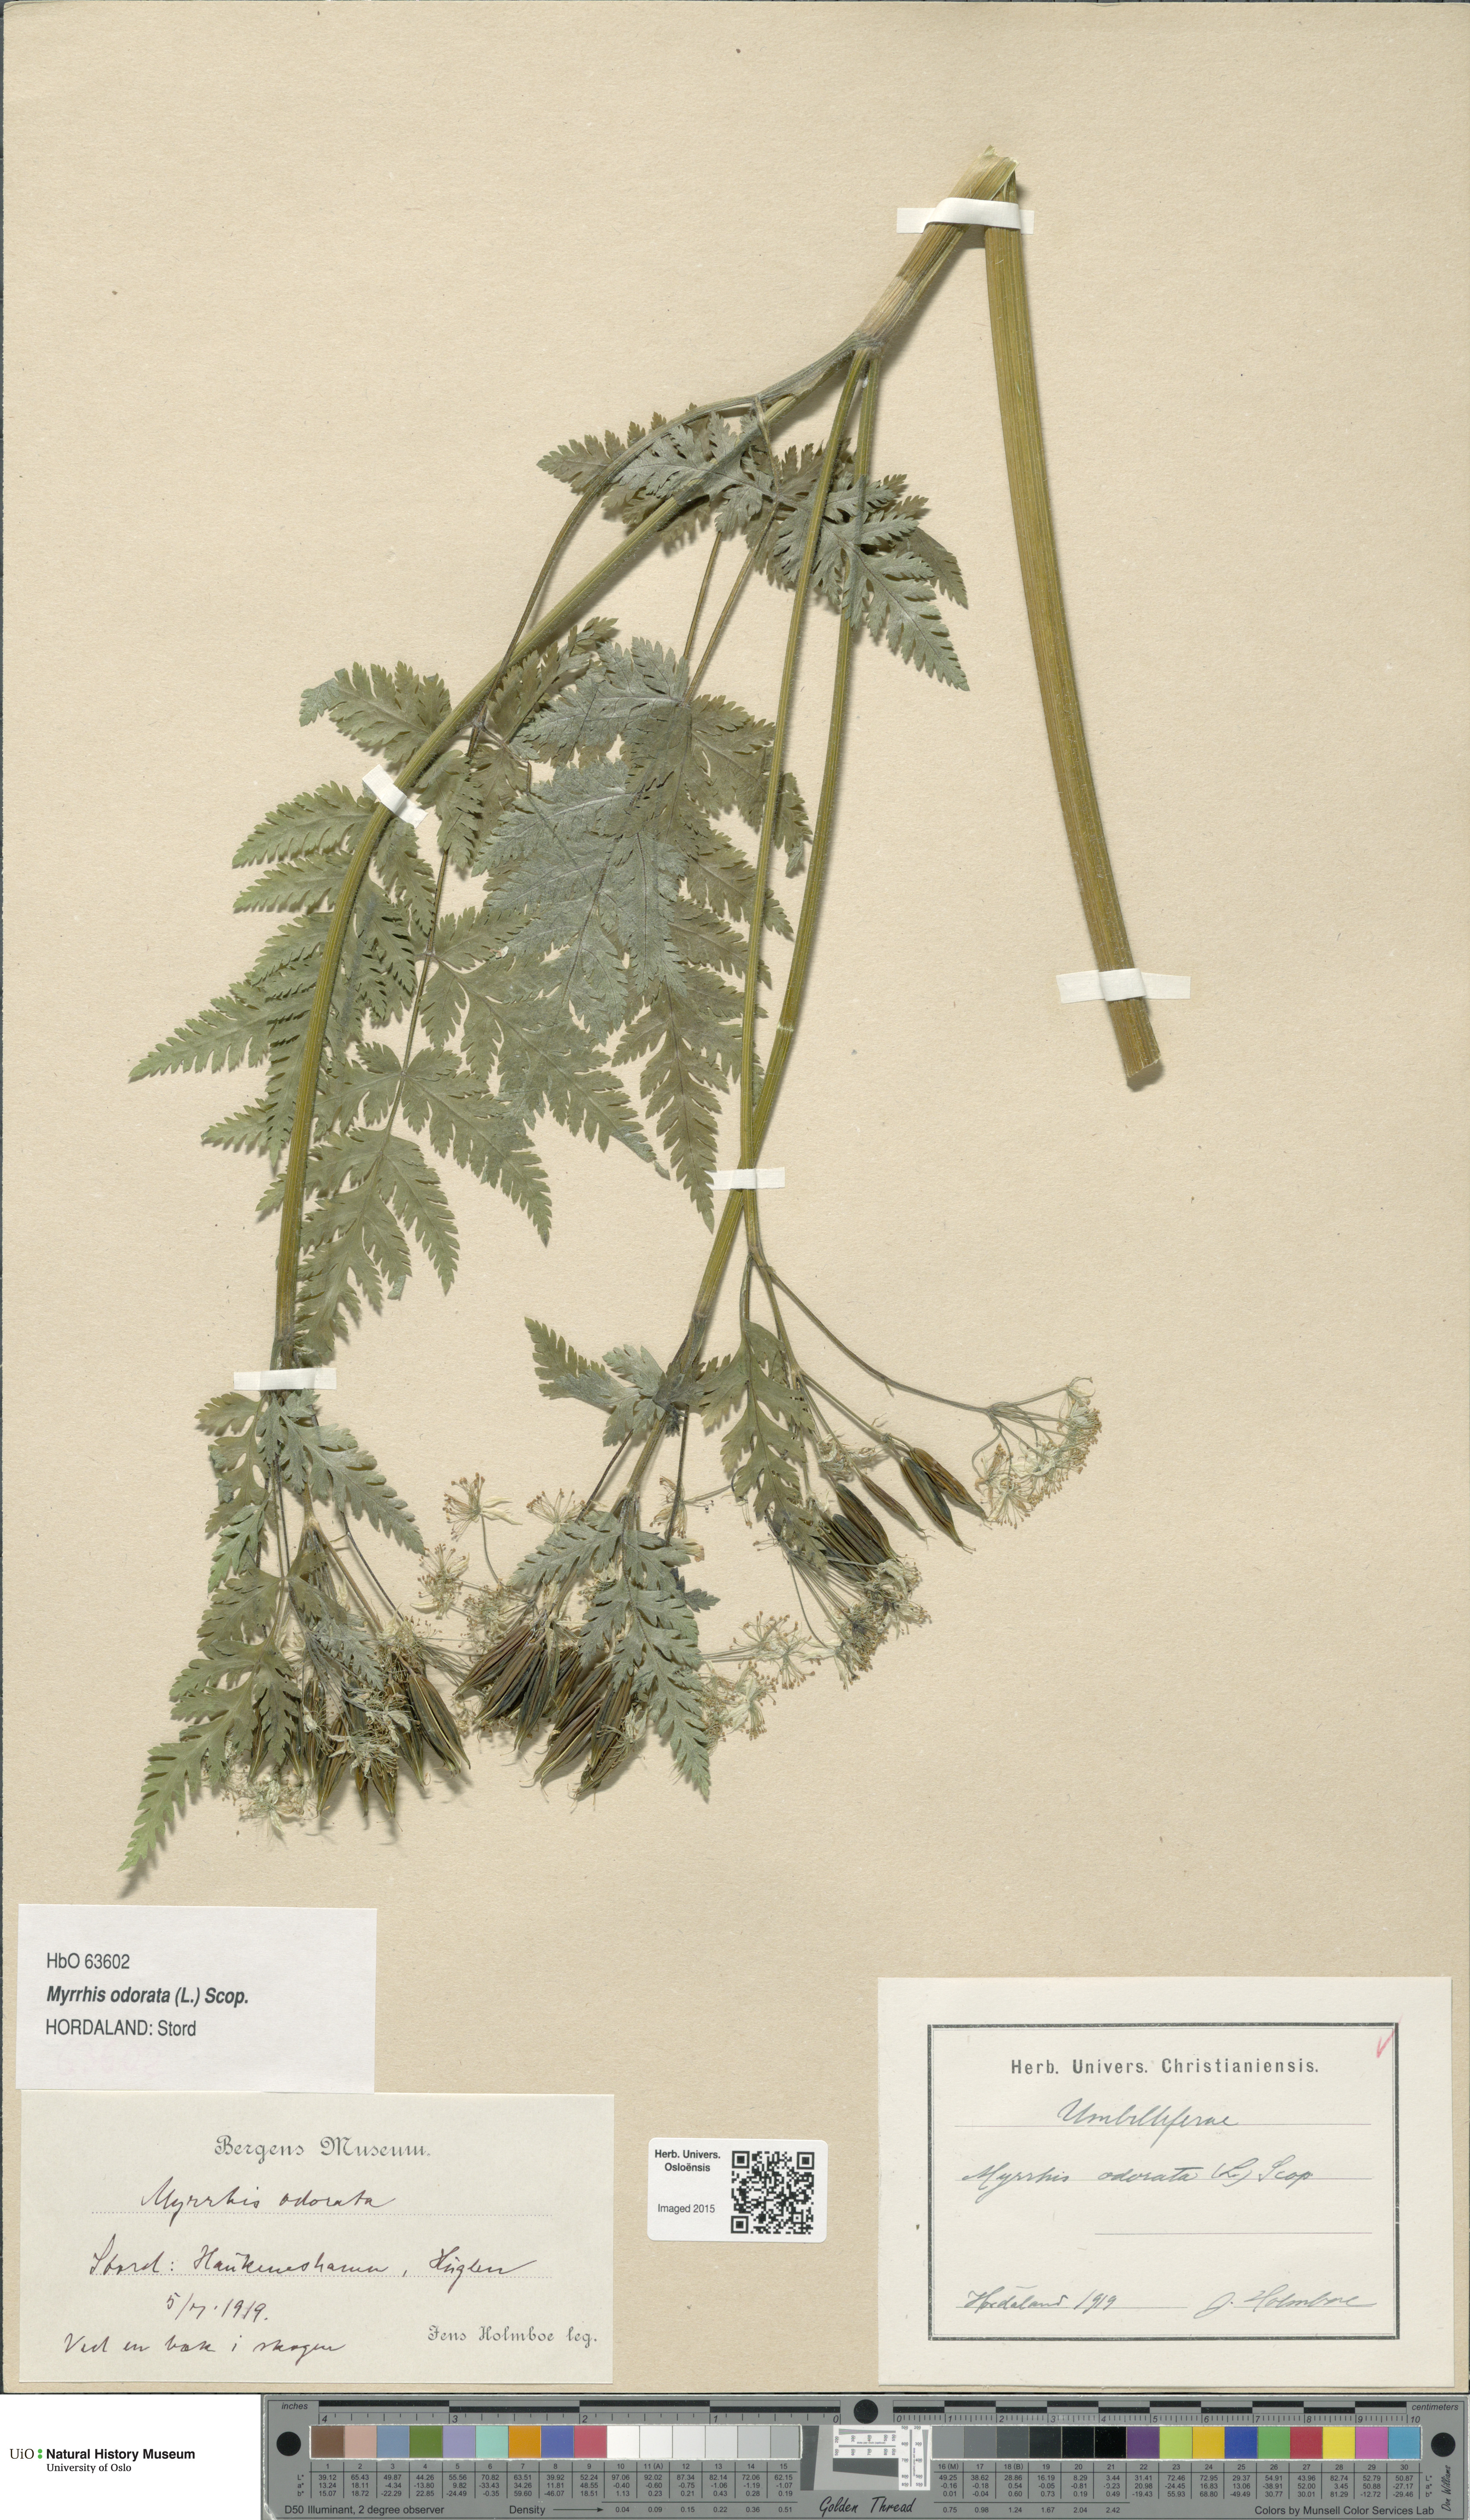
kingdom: Plantae
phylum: Tracheophyta
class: Magnoliopsida
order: Apiales
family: Apiaceae
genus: Myrrhis
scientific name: Myrrhis odorata
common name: Sweet cicely
